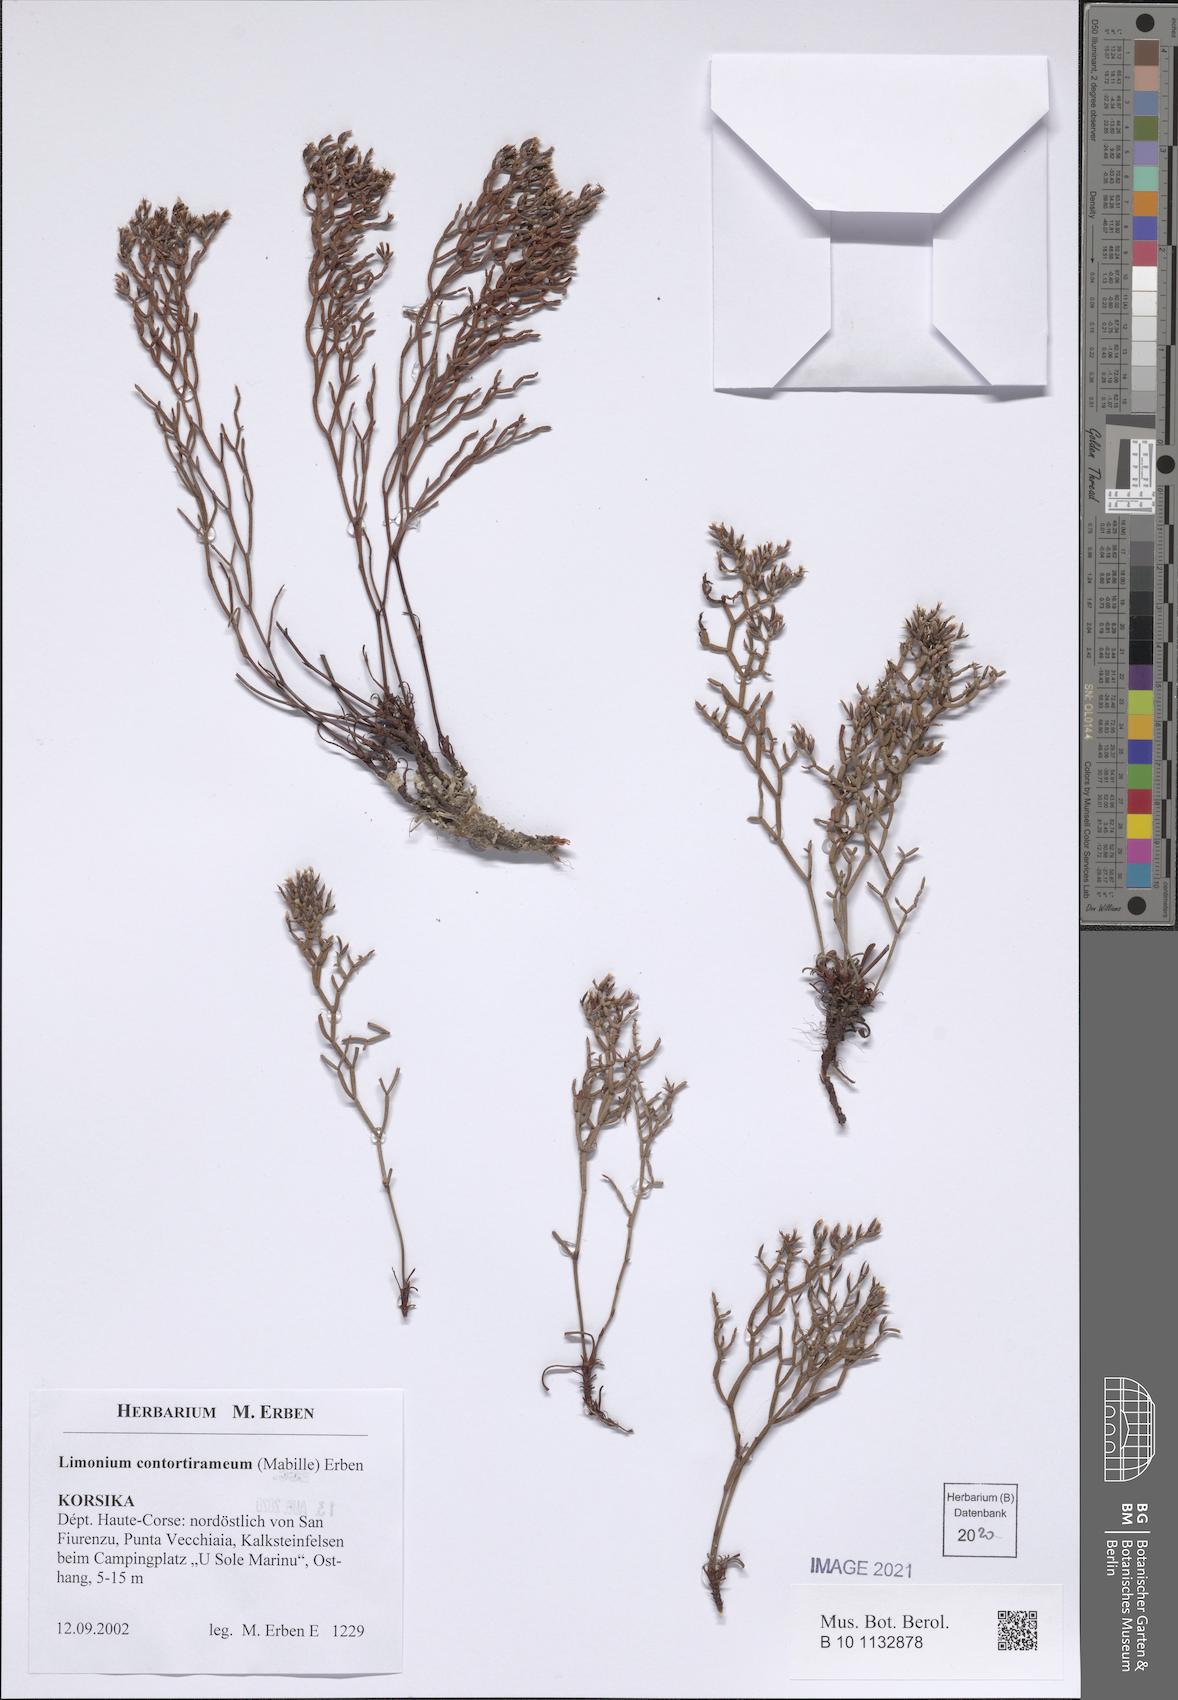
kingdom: Plantae
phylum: Tracheophyta
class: Magnoliopsida
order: Caryophyllales
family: Plumbaginaceae
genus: Limonium
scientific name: Limonium contortirameum
